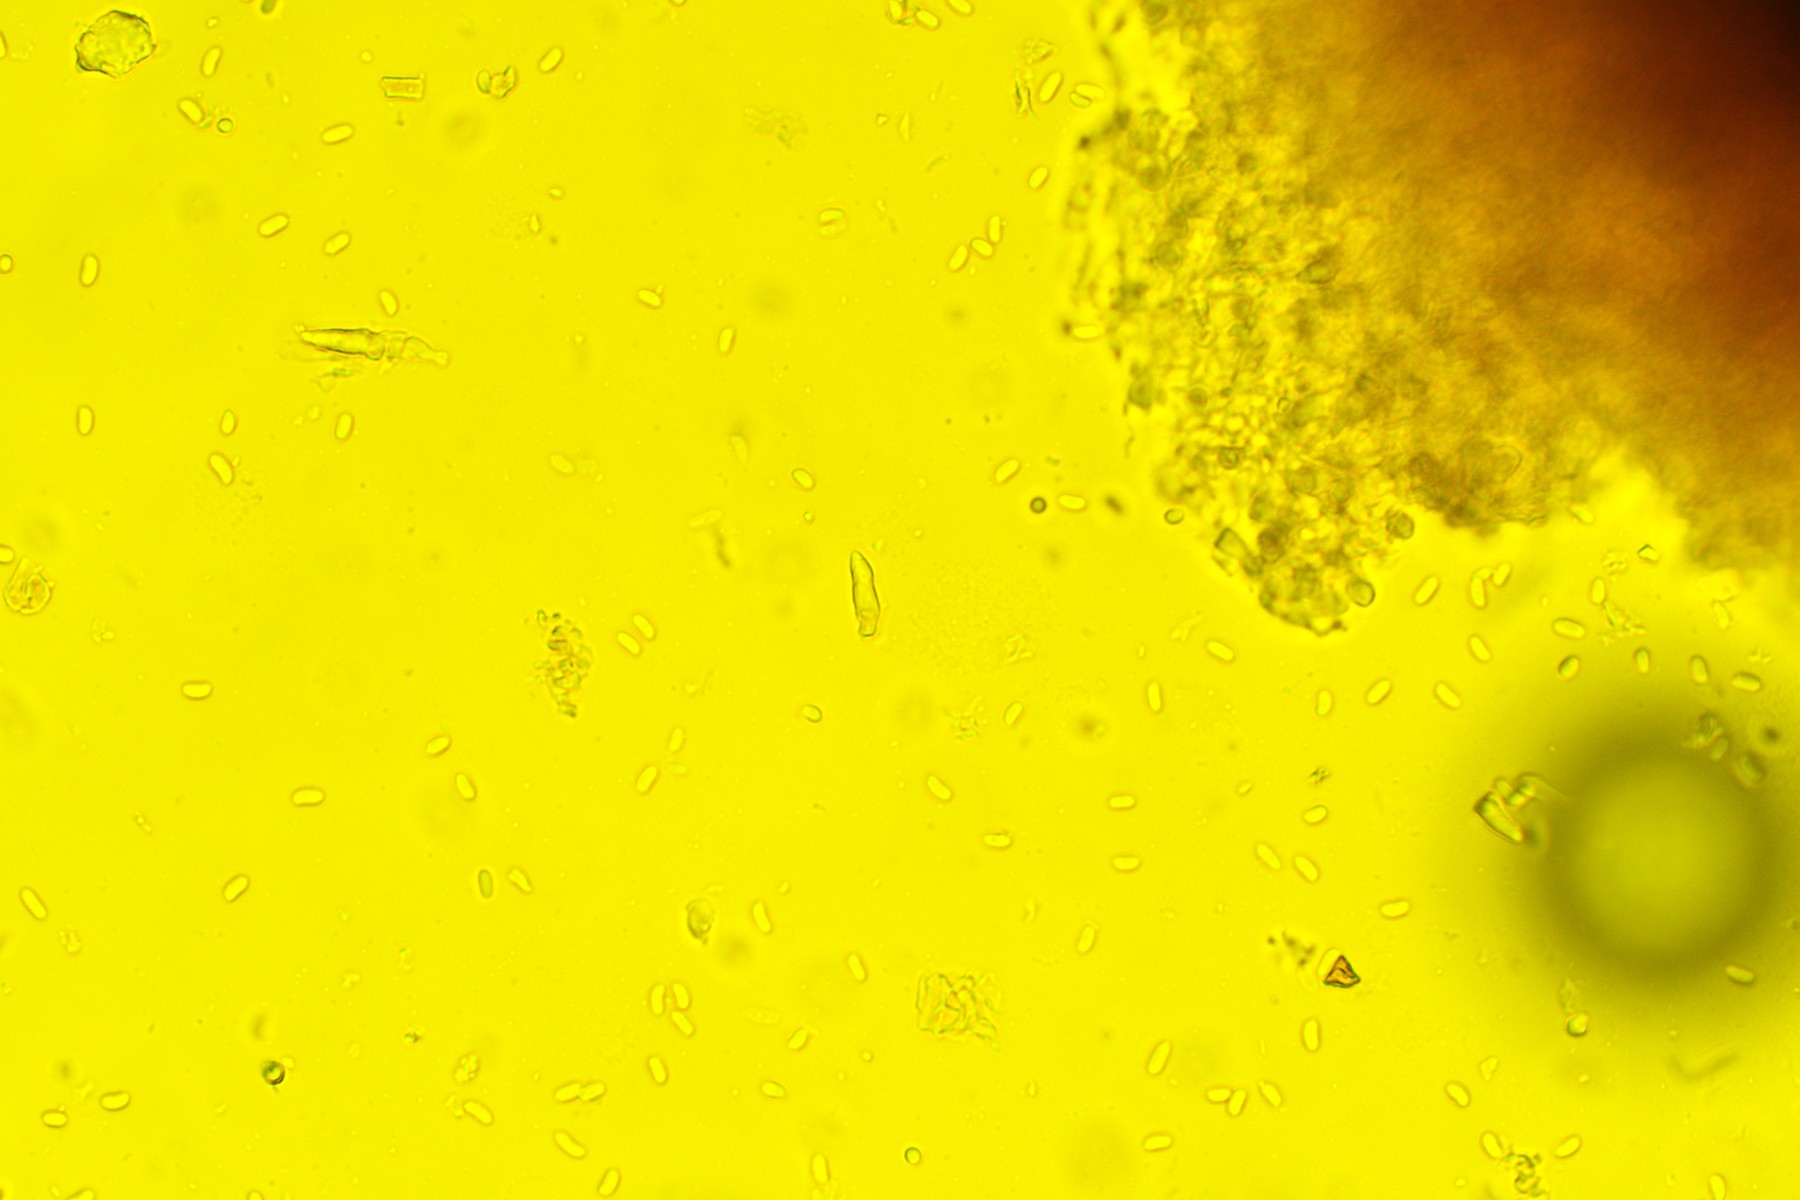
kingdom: Fungi
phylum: Basidiomycota
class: Agaricomycetes
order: Polyporales
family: Meruliaceae
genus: Scopuloides
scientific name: Scopuloides rimosa
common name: dughinde
